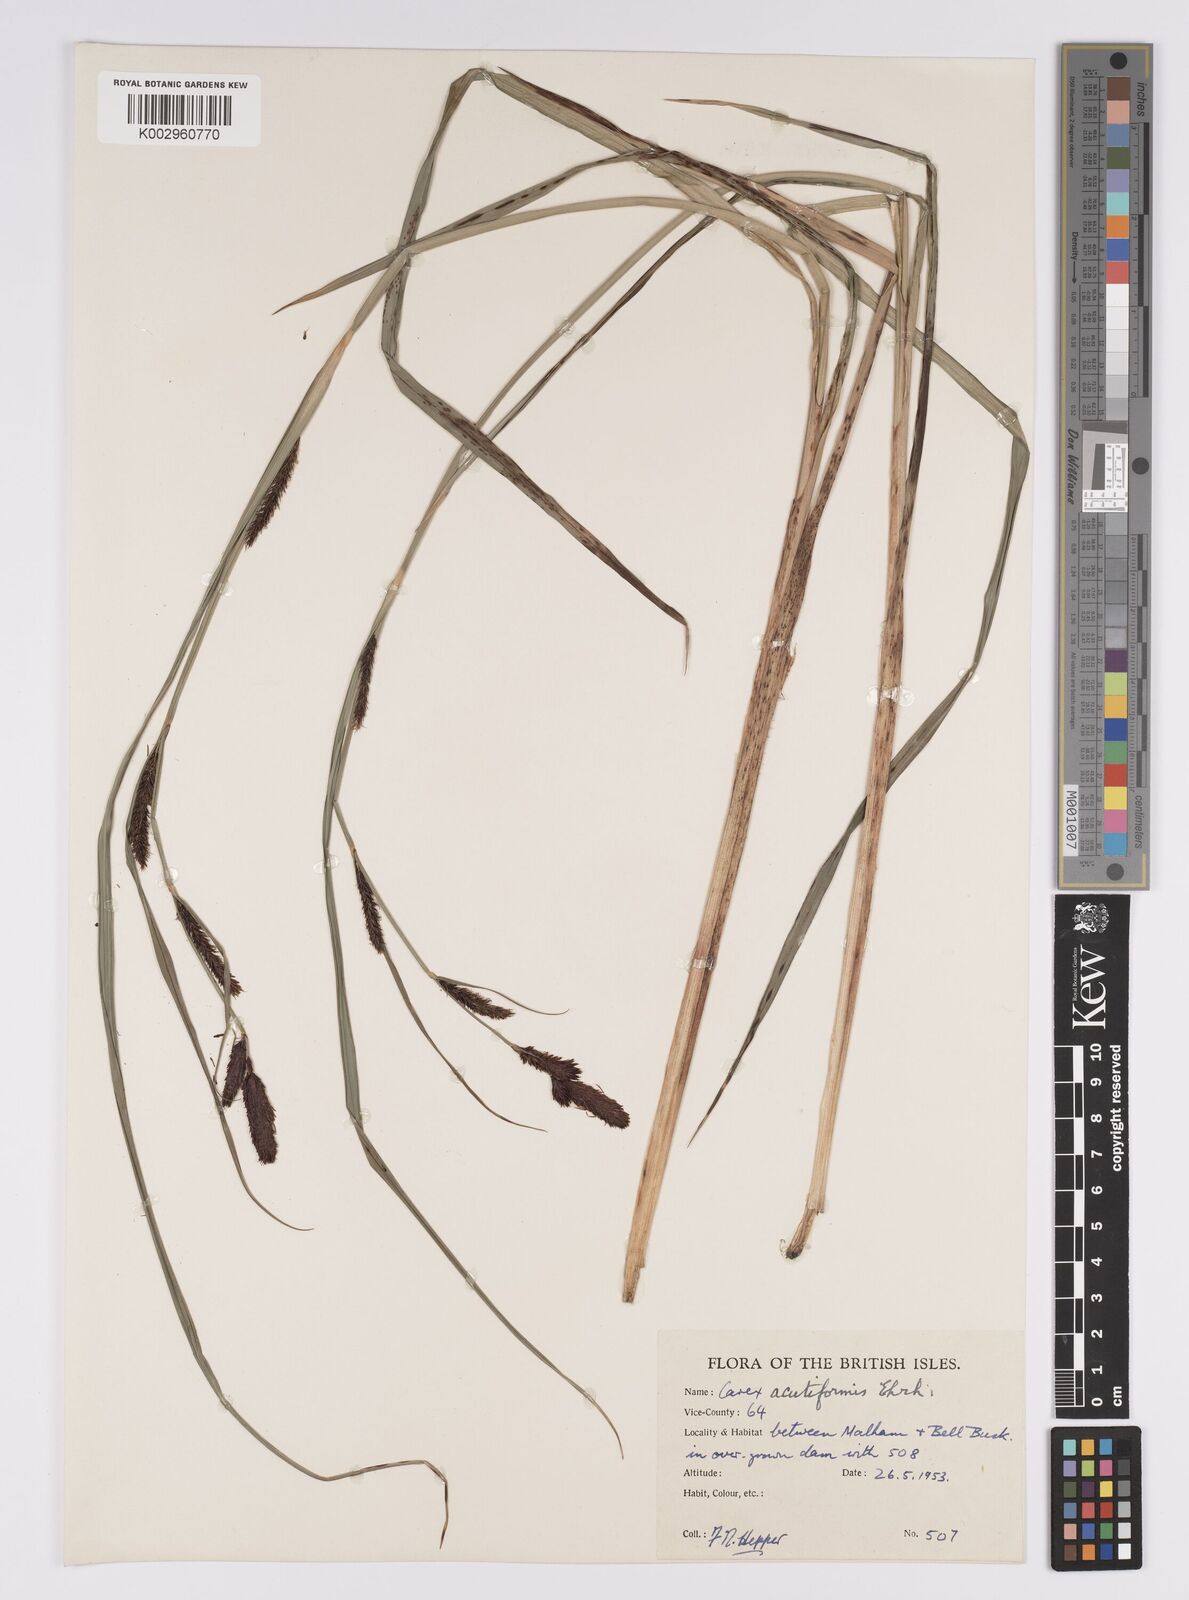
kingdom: Plantae
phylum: Tracheophyta
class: Liliopsida
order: Poales
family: Cyperaceae
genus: Carex
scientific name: Carex acutiformis
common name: Lesser pond-sedge
